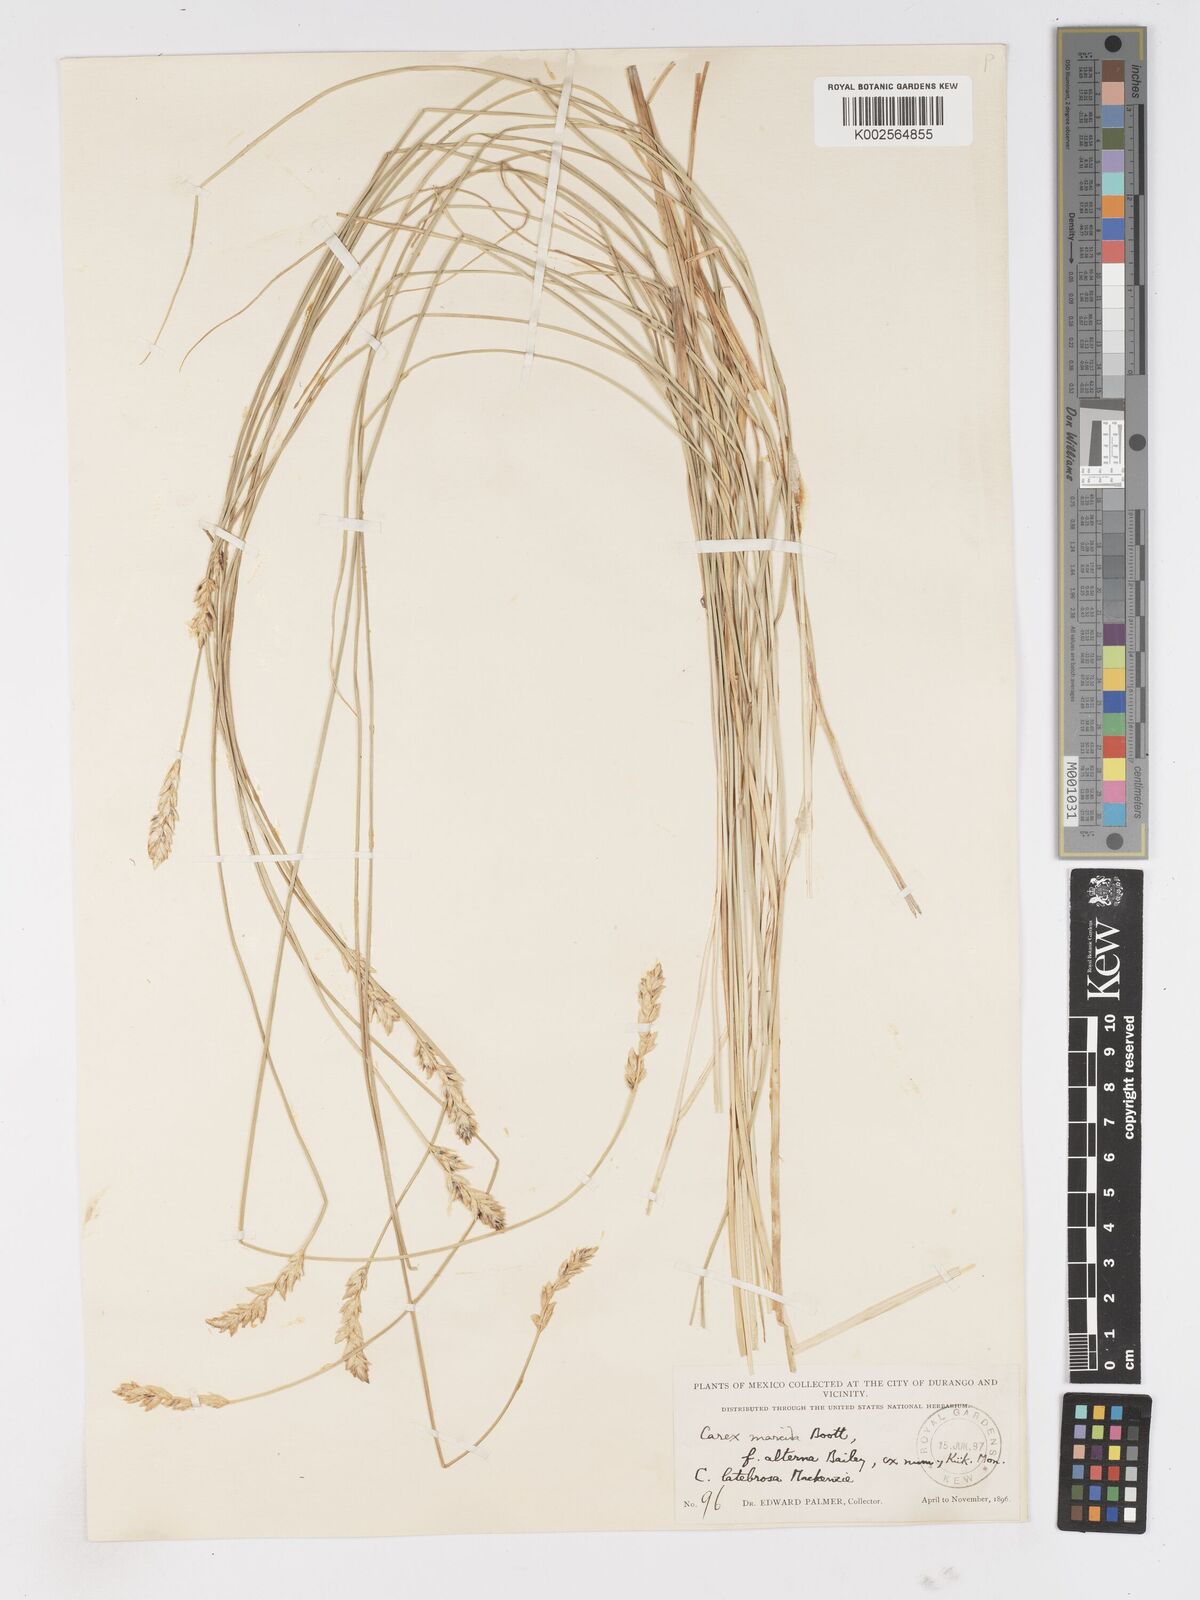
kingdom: Plantae
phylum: Tracheophyta
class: Liliopsida
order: Poales
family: Cyperaceae
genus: Carex
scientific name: Carex praegracilis
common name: Black creeper sedge
